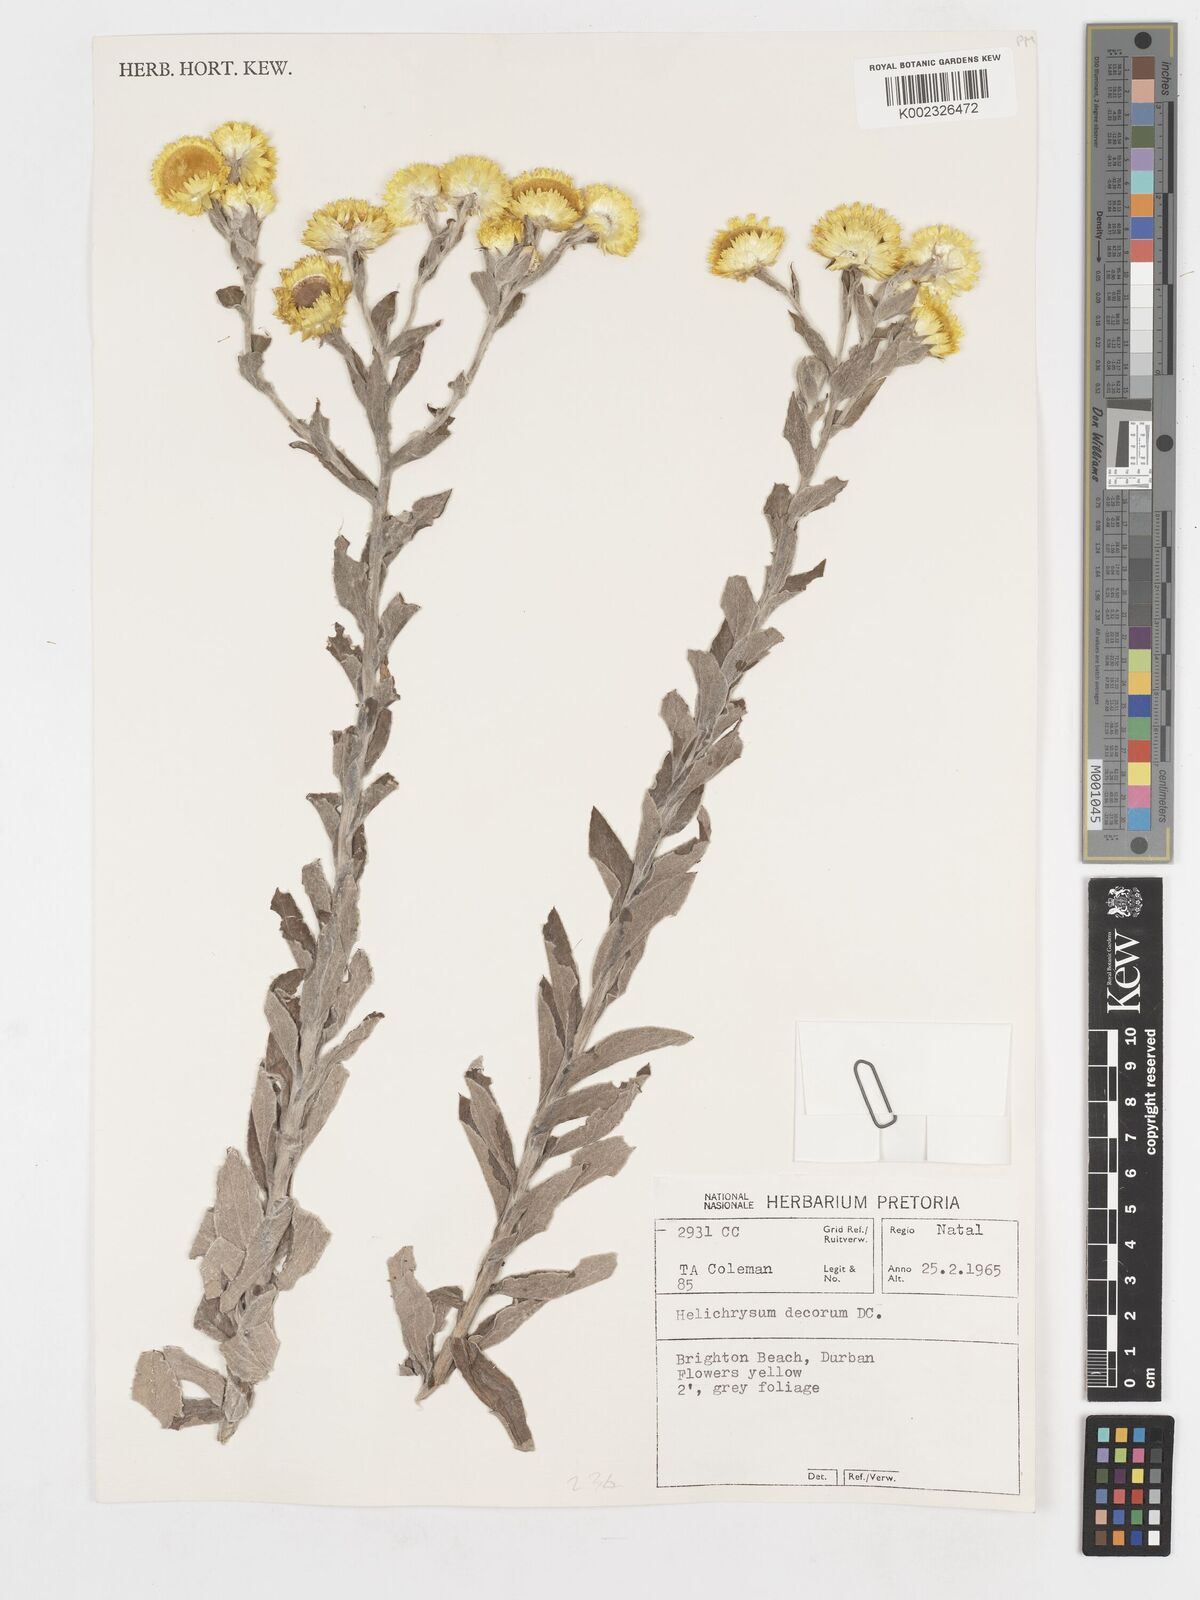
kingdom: Plantae
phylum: Tracheophyta
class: Magnoliopsida
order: Asterales
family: Asteraceae
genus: Helichrysum
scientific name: Helichrysum decorum
